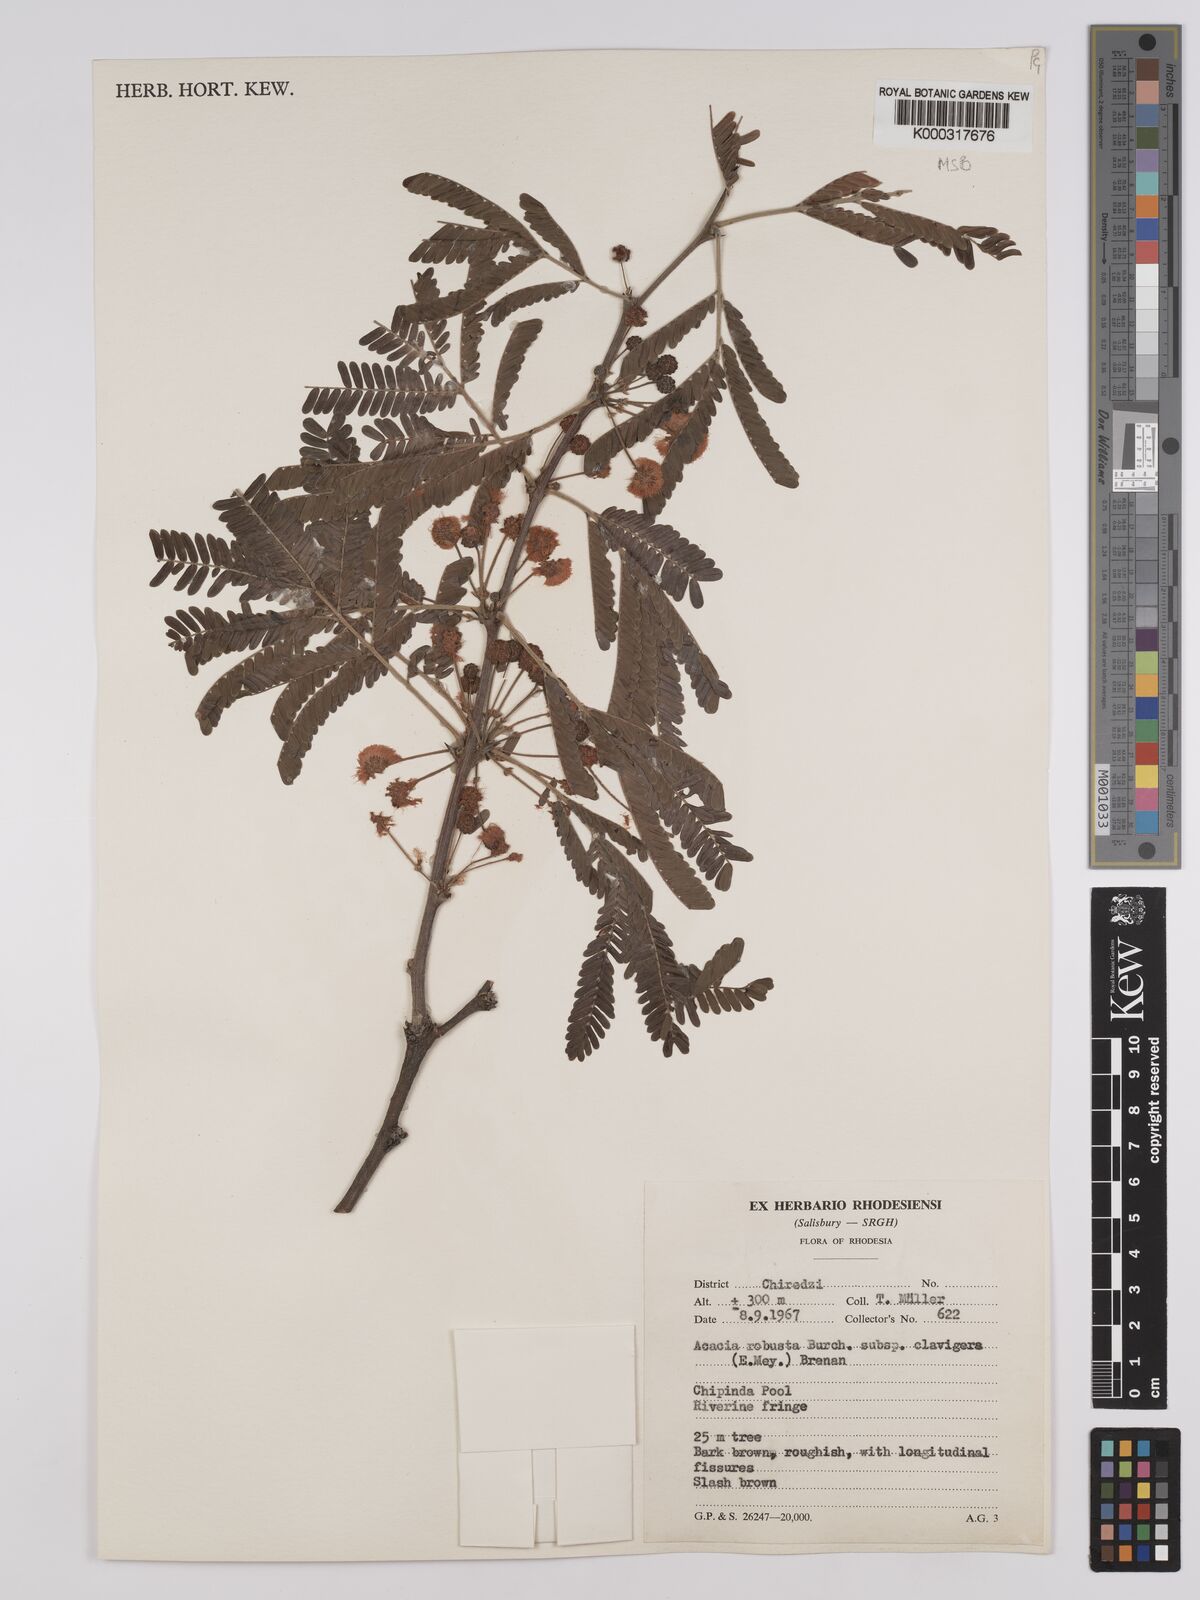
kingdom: Plantae
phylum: Tracheophyta
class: Magnoliopsida
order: Fabales
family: Fabaceae
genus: Vachellia
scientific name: Vachellia robusta
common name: Ankle thorn
